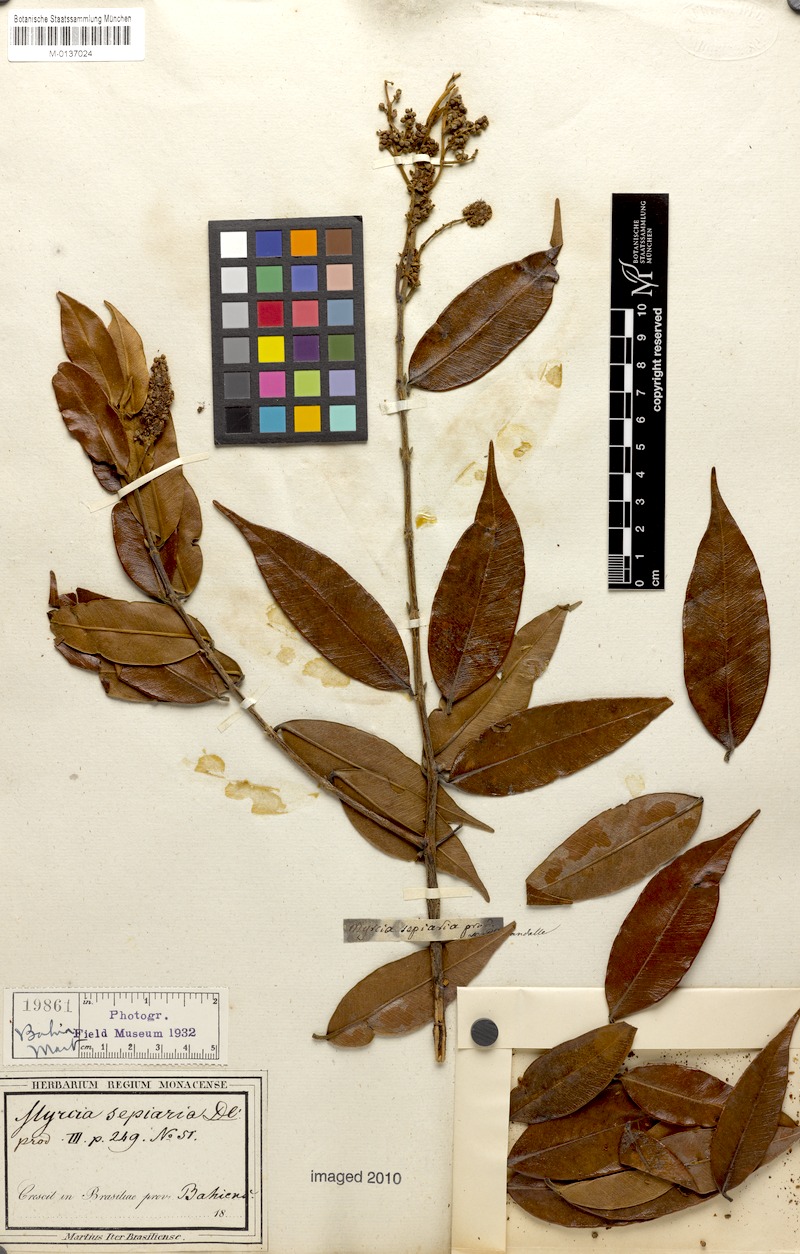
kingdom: Plantae
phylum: Tracheophyta
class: Magnoliopsida
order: Myrtales
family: Myrtaceae
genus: Myrcia
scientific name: Myrcia splendens
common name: Surinam cherry
